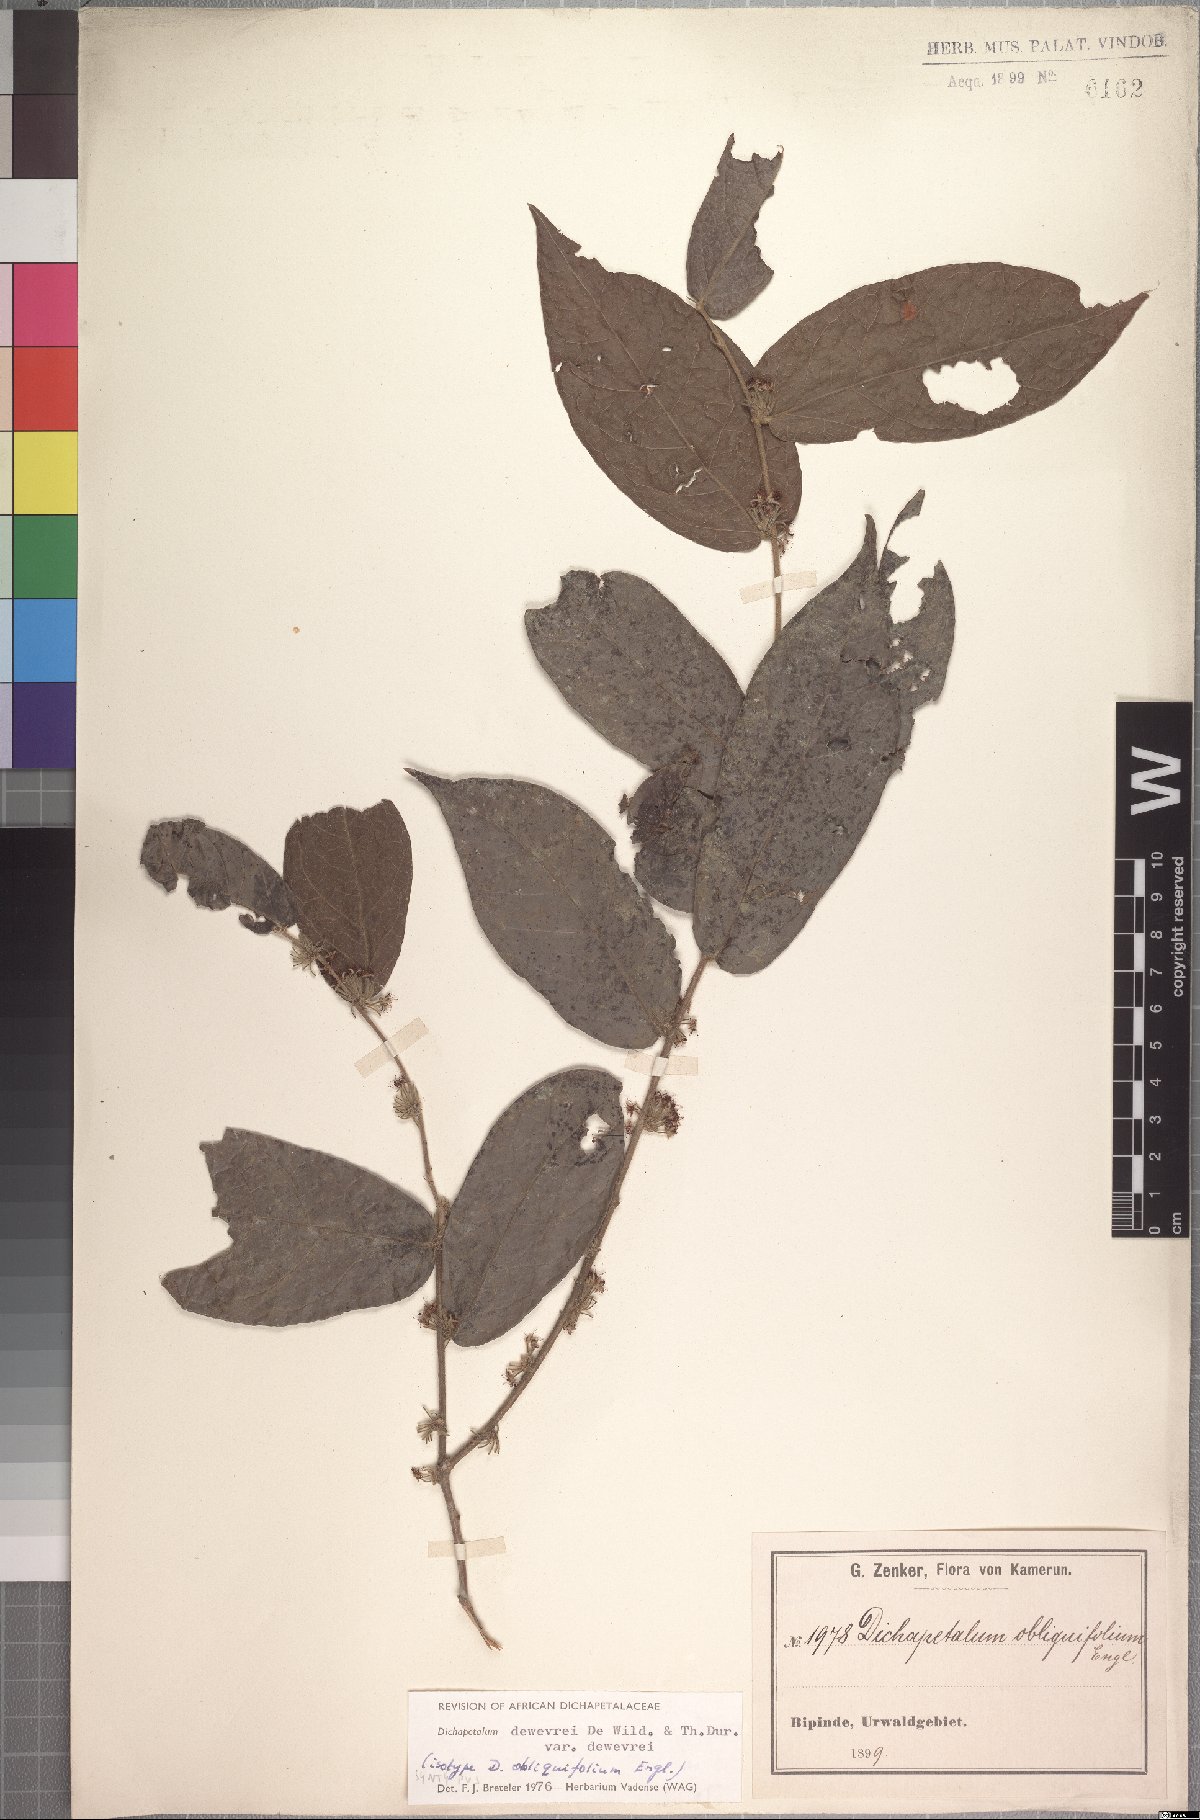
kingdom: Plantae
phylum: Tracheophyta
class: Magnoliopsida
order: Malpighiales
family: Dichapetalaceae
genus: Dichapetalum
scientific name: Dichapetalum dewevrei
